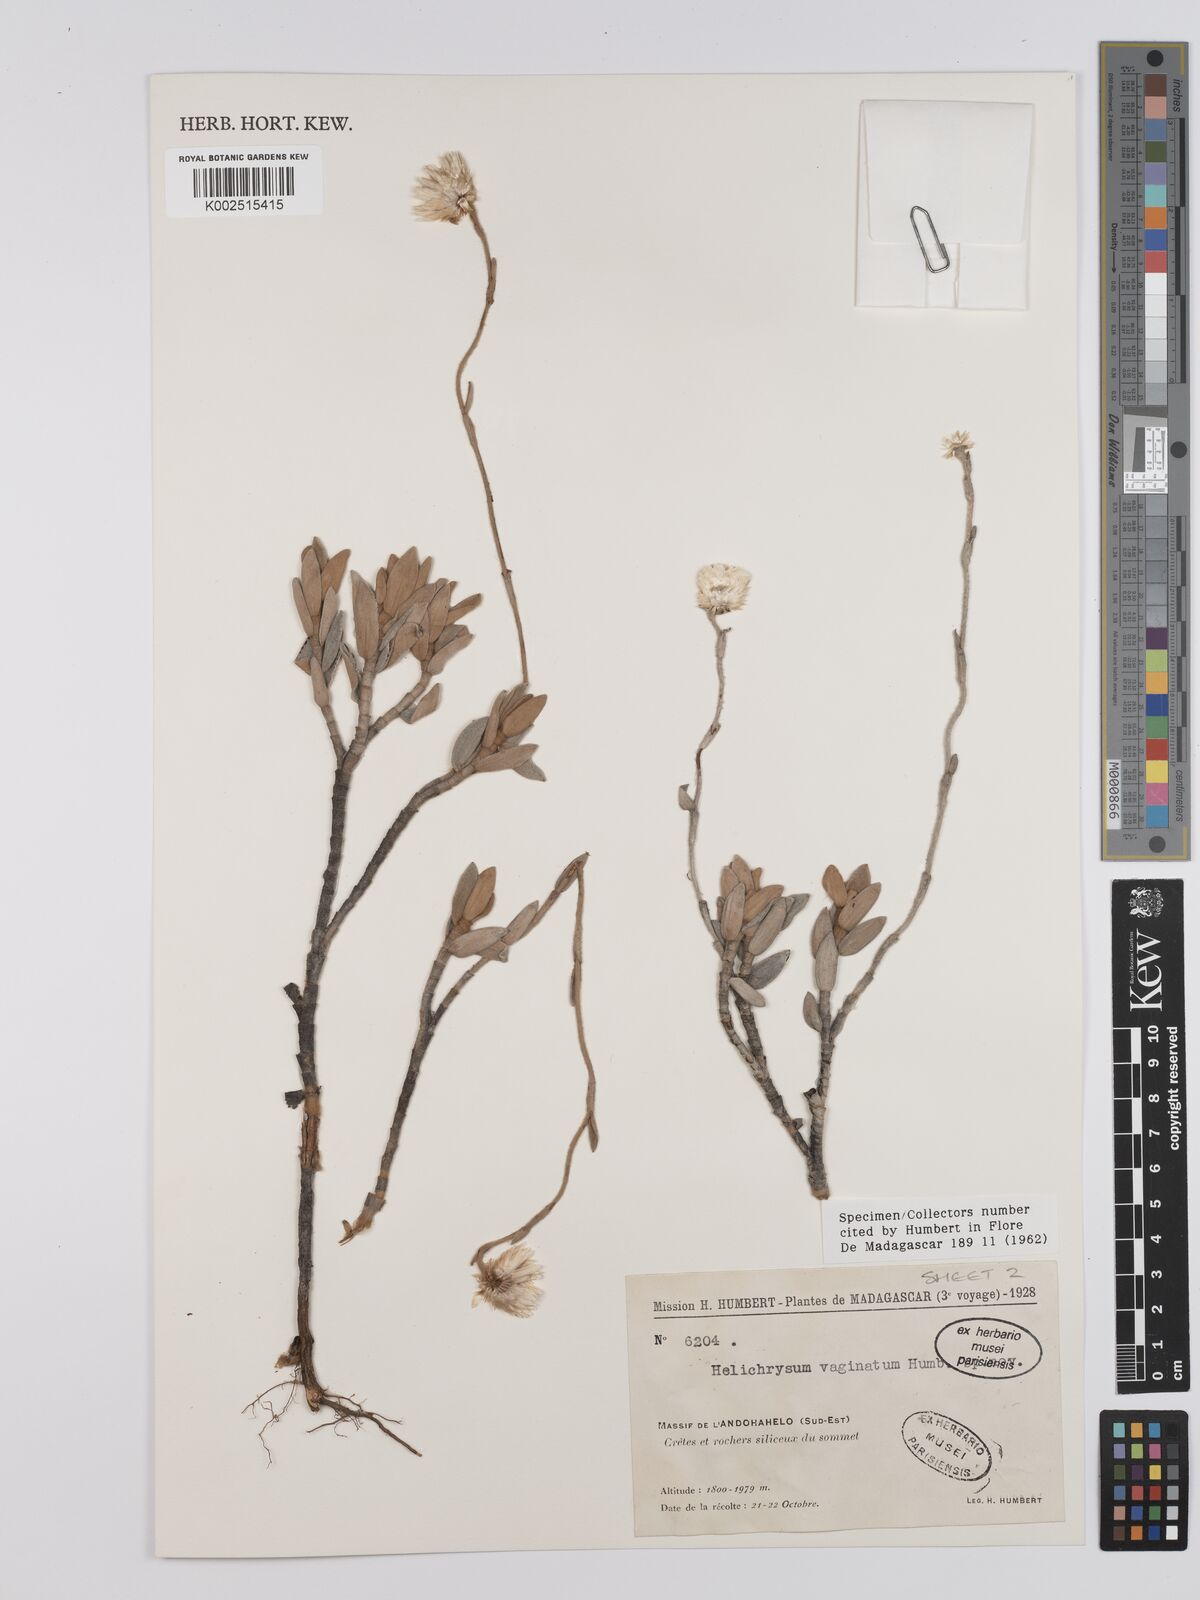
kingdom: Plantae
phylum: Tracheophyta
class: Magnoliopsida
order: Asterales
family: Asteraceae
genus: Helichrysum
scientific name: Helichrysum vaginatum
